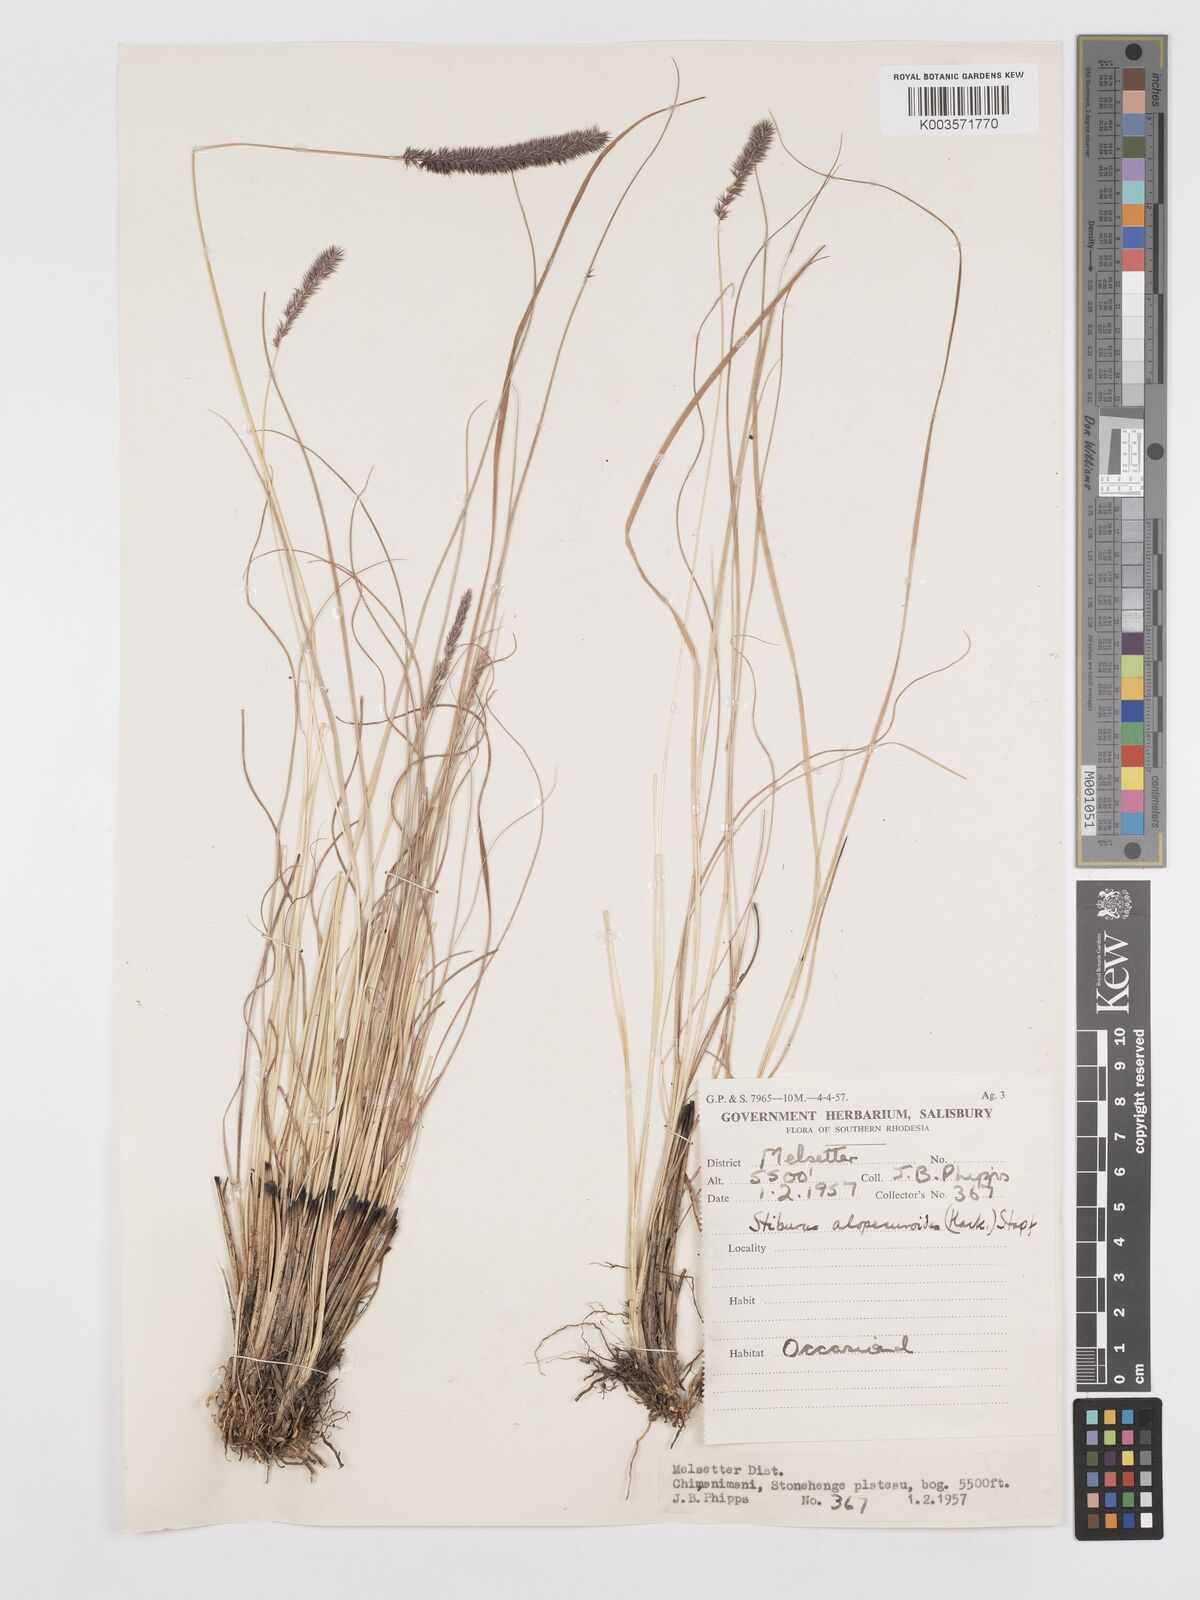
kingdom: Plantae
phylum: Tracheophyta
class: Liliopsida
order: Poales
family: Poaceae
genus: Stiburus
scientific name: Stiburus alopecuroides
